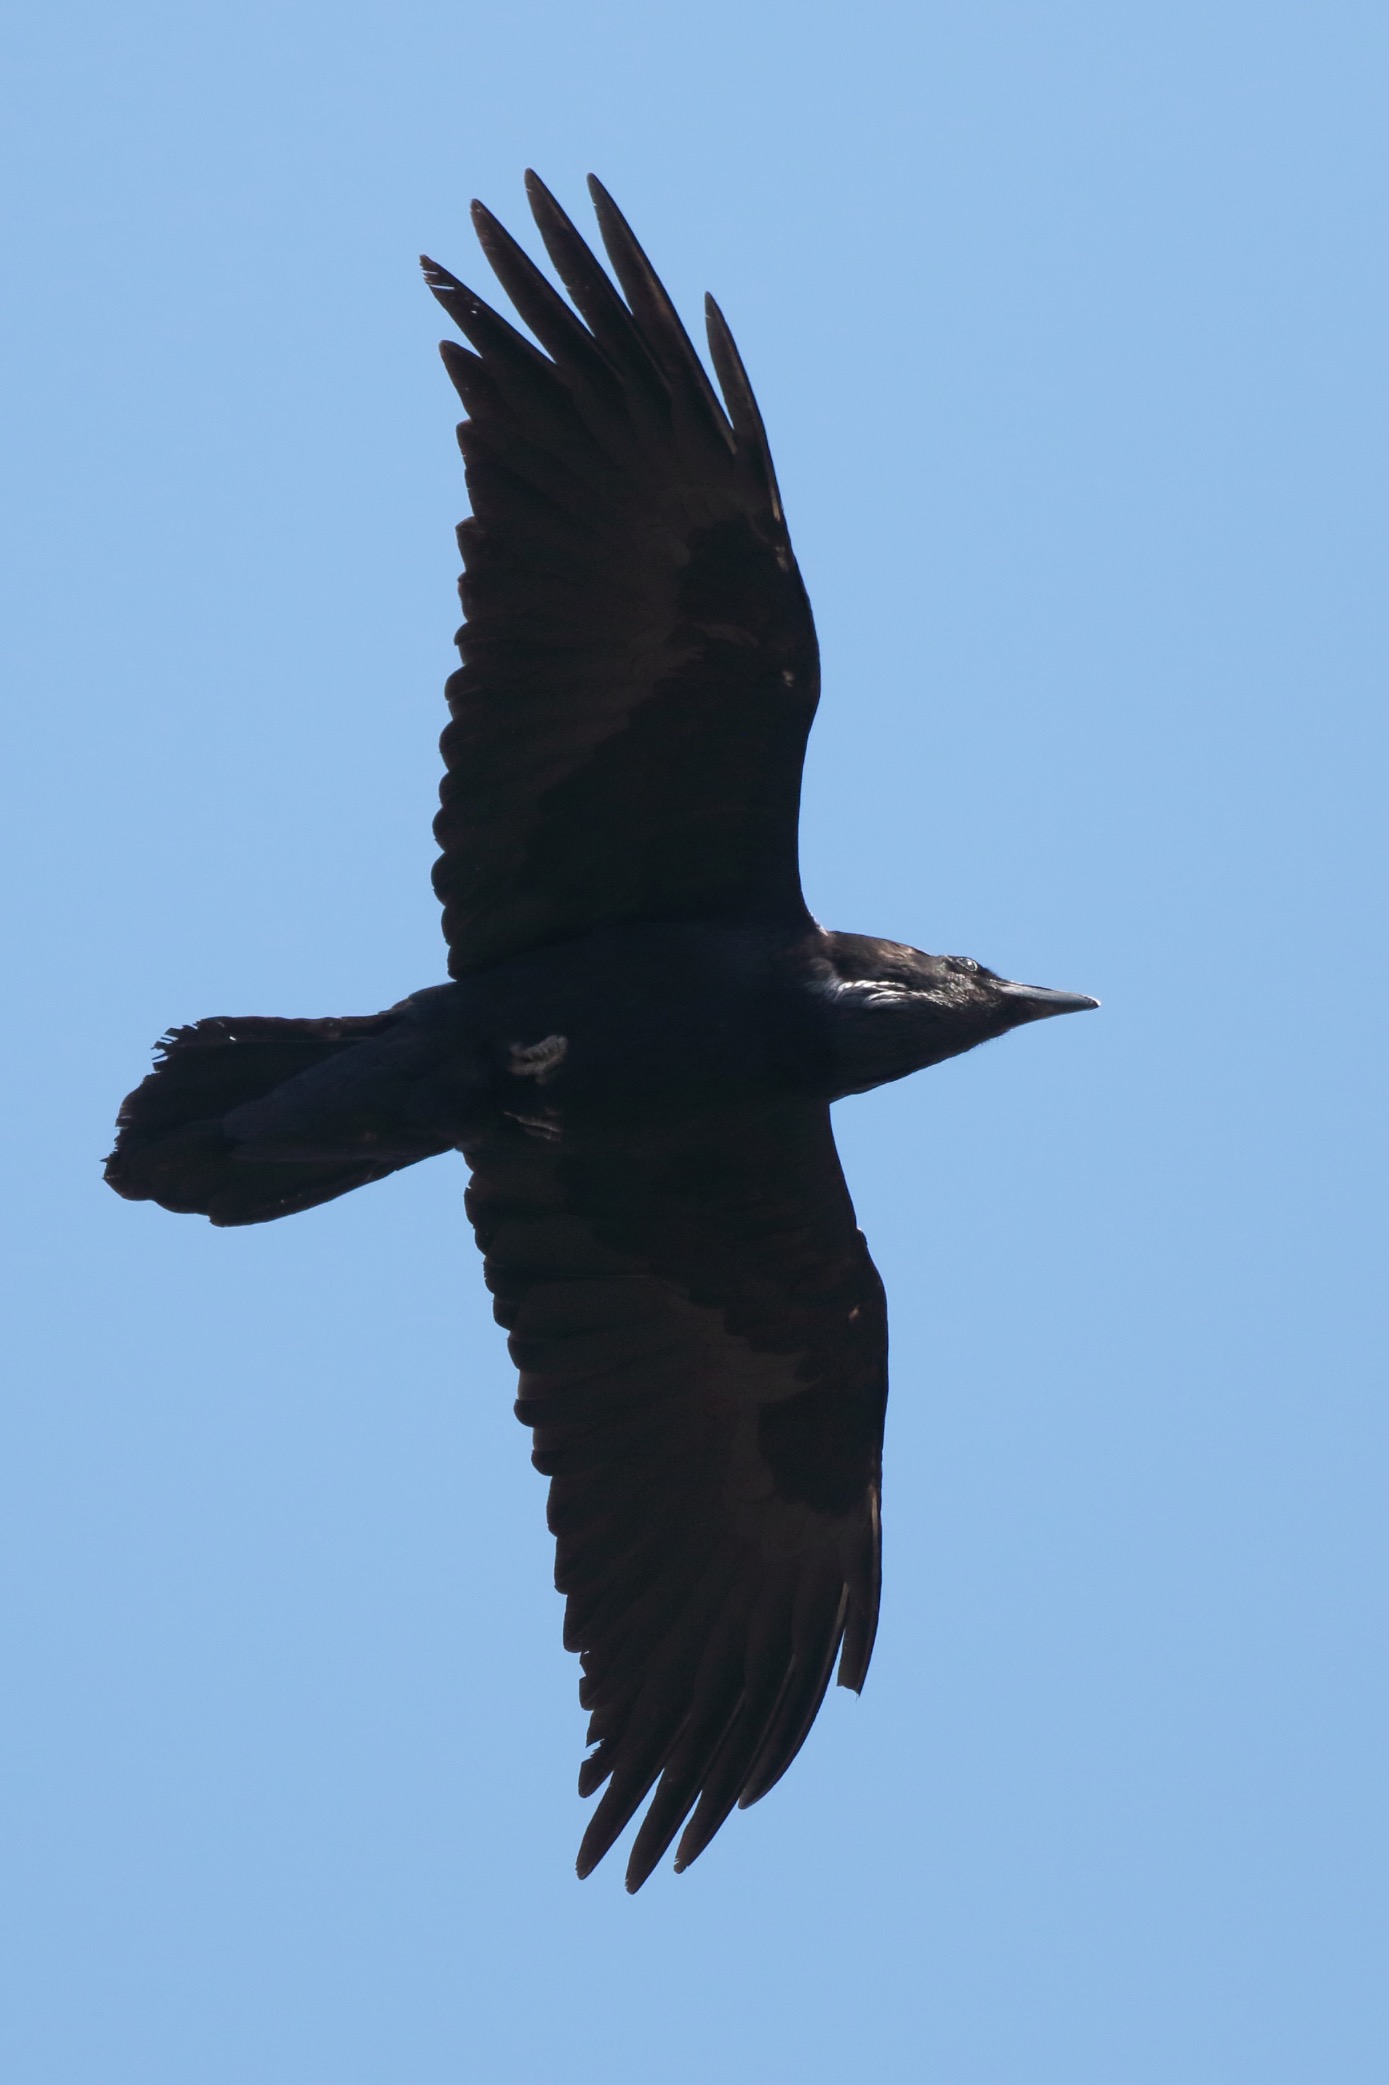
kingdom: Animalia
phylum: Chordata
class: Aves
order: Passeriformes
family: Corvidae
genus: Corvus
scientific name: Corvus corax
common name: Ravn
